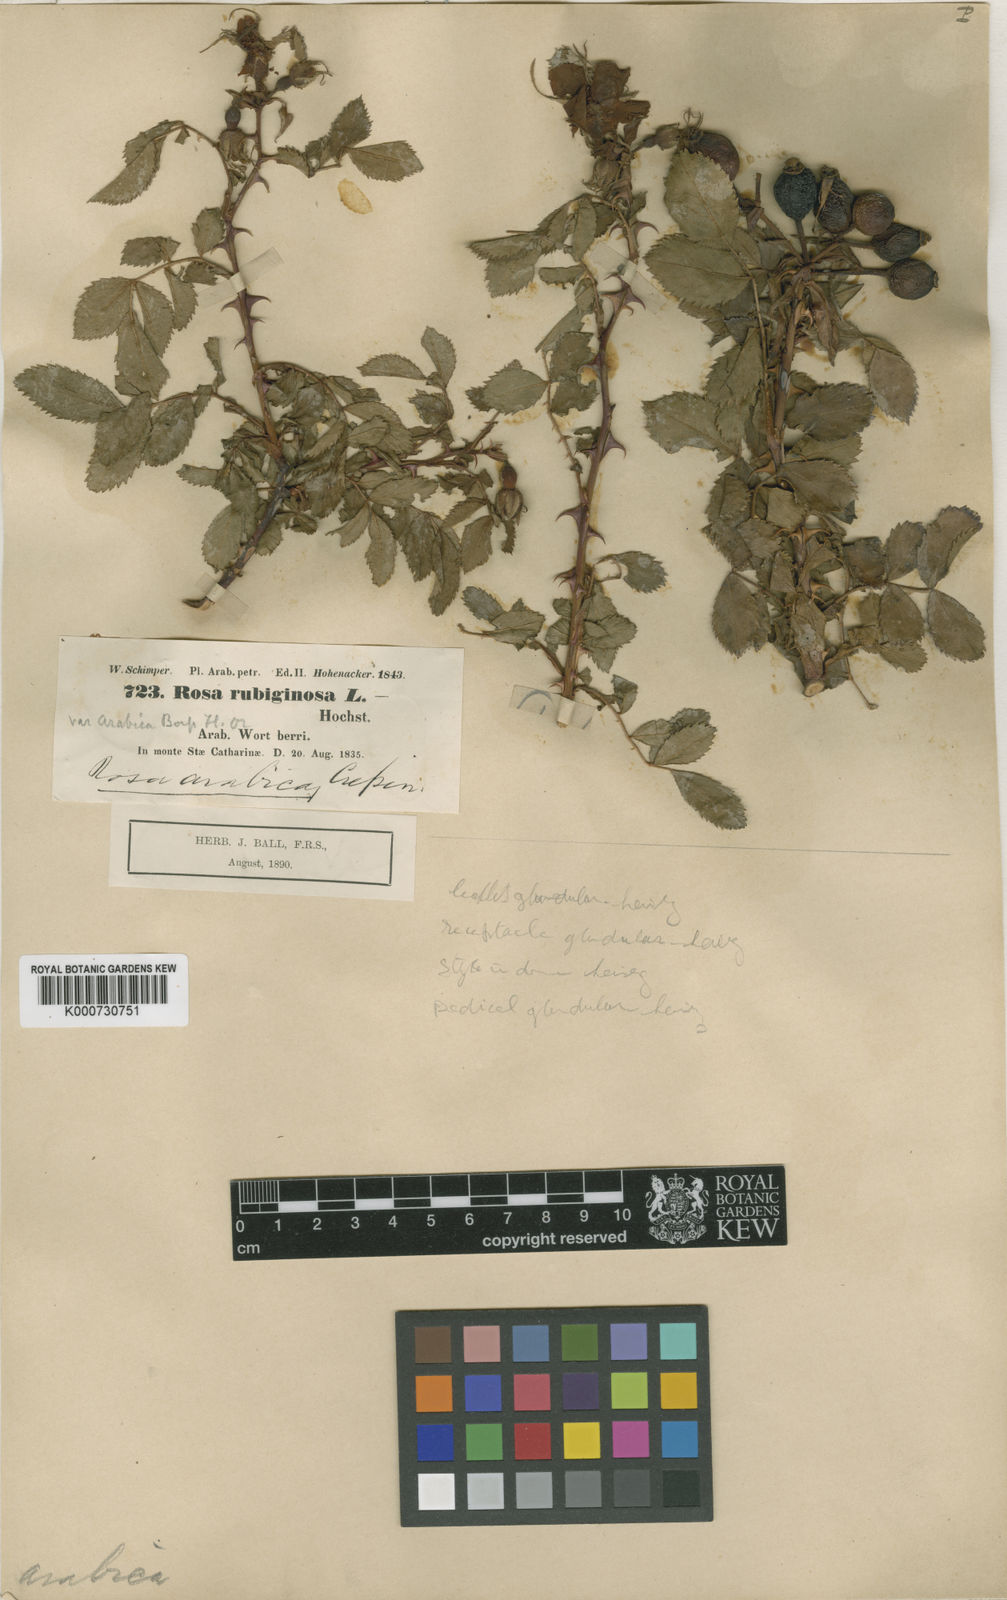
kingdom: Plantae
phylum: Tracheophyta
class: Magnoliopsida
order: Rosales
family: Rosaceae
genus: Rosa
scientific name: Rosa
